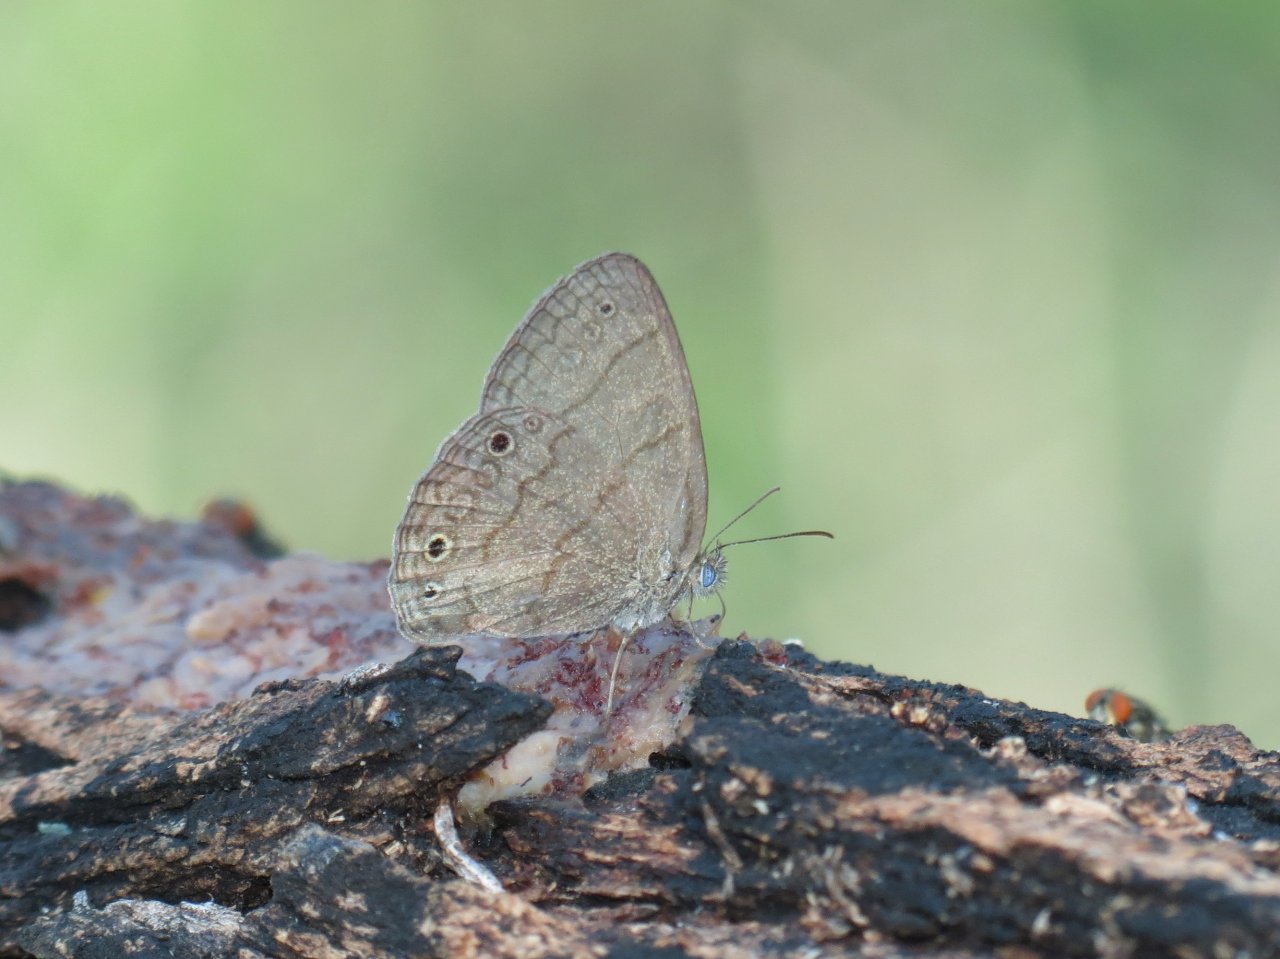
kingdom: Animalia
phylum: Arthropoda
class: Insecta
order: Lepidoptera
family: Nymphalidae
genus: Hermeuptychia
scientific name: Hermeuptychia hermybius
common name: South Texas Satyr
